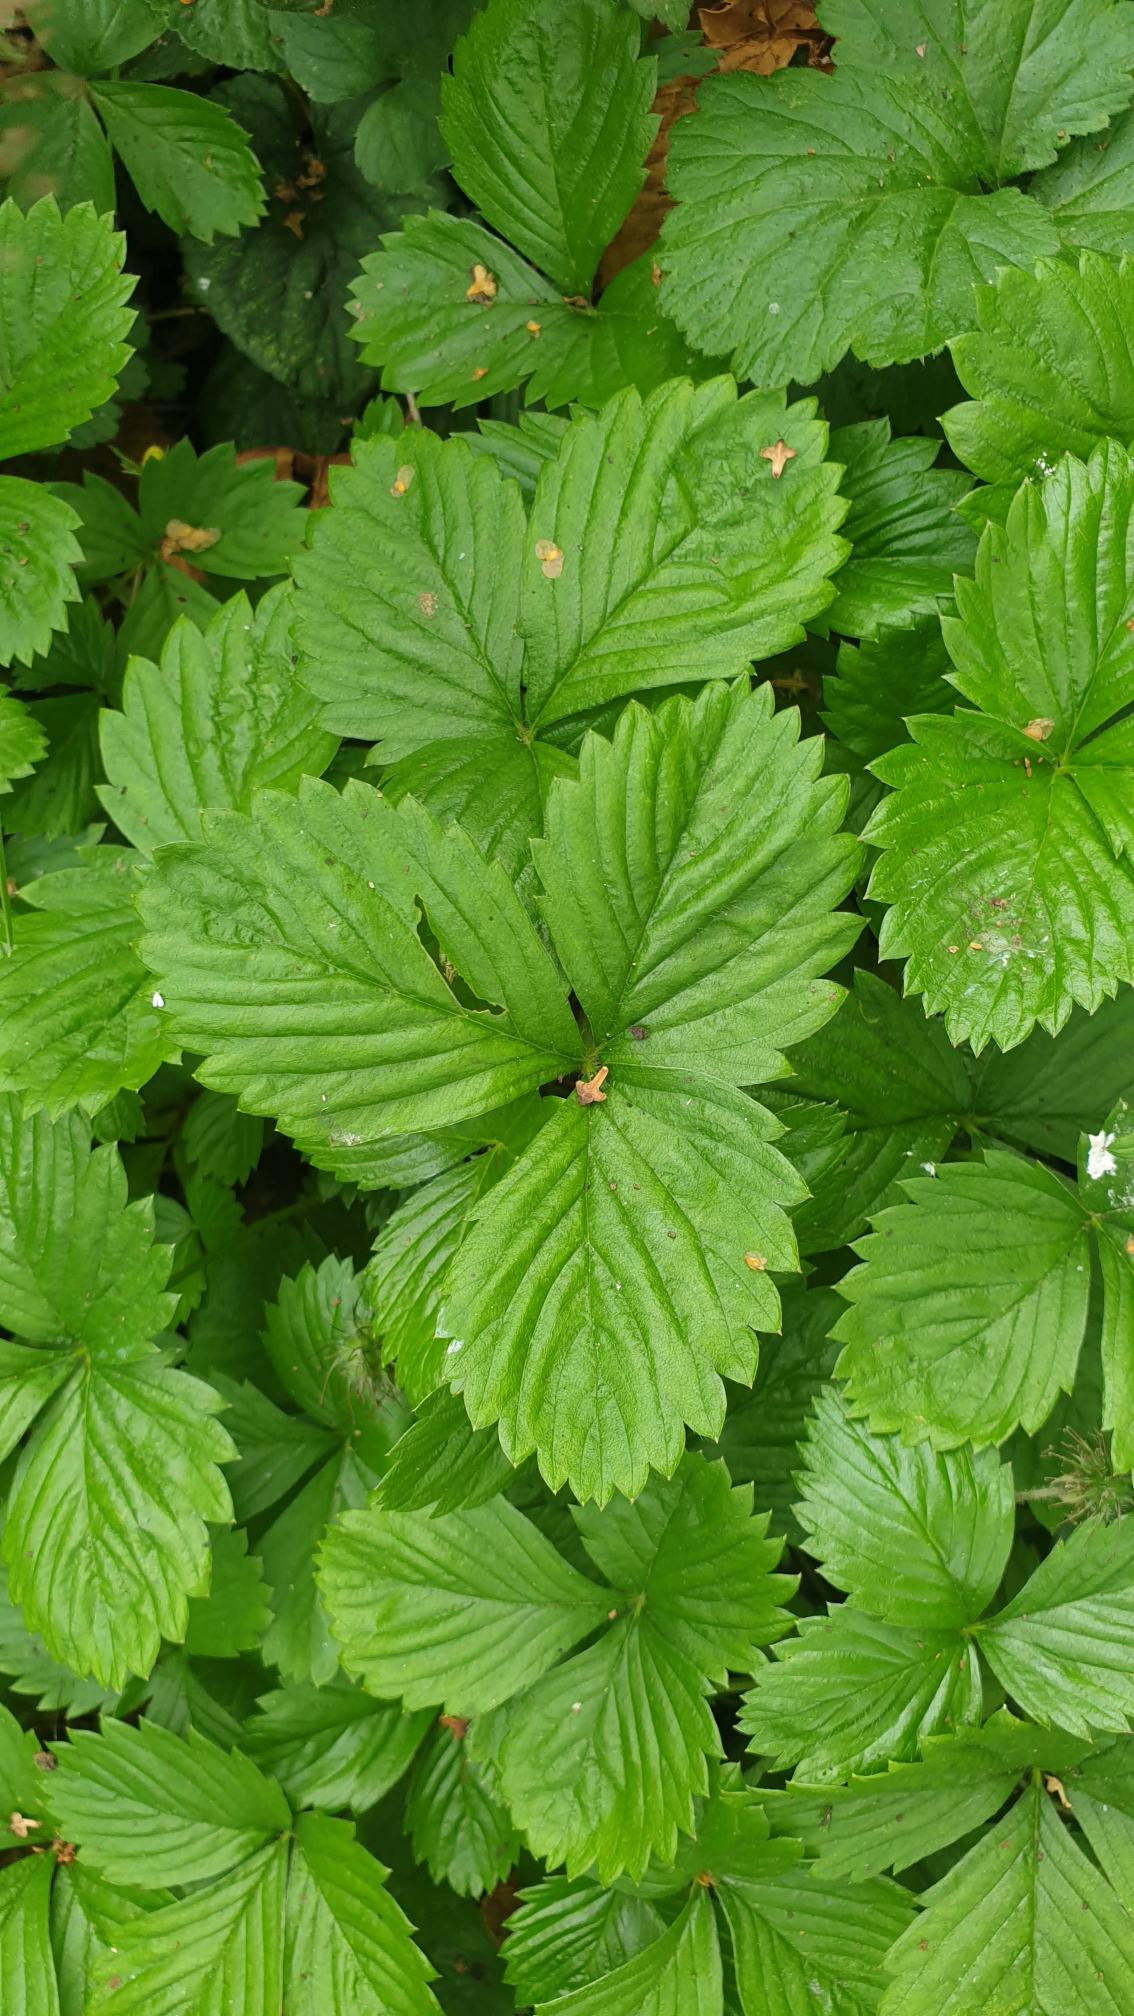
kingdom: Plantae
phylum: Tracheophyta
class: Magnoliopsida
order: Rosales
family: Rosaceae
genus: Fragaria
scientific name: Fragaria vesca
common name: Skov-jordbær
